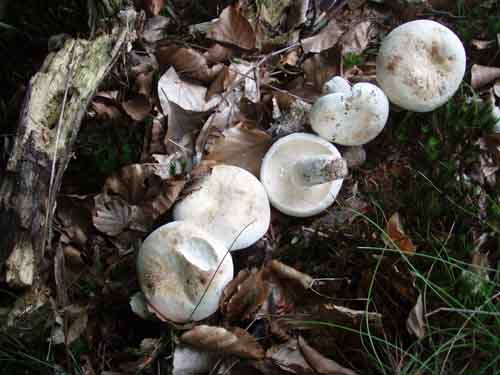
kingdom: Fungi
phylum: Basidiomycota
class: Agaricomycetes
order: Russulales
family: Russulaceae
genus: Lactifluus
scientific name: Lactifluus piperatus
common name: peber-mælkehat
